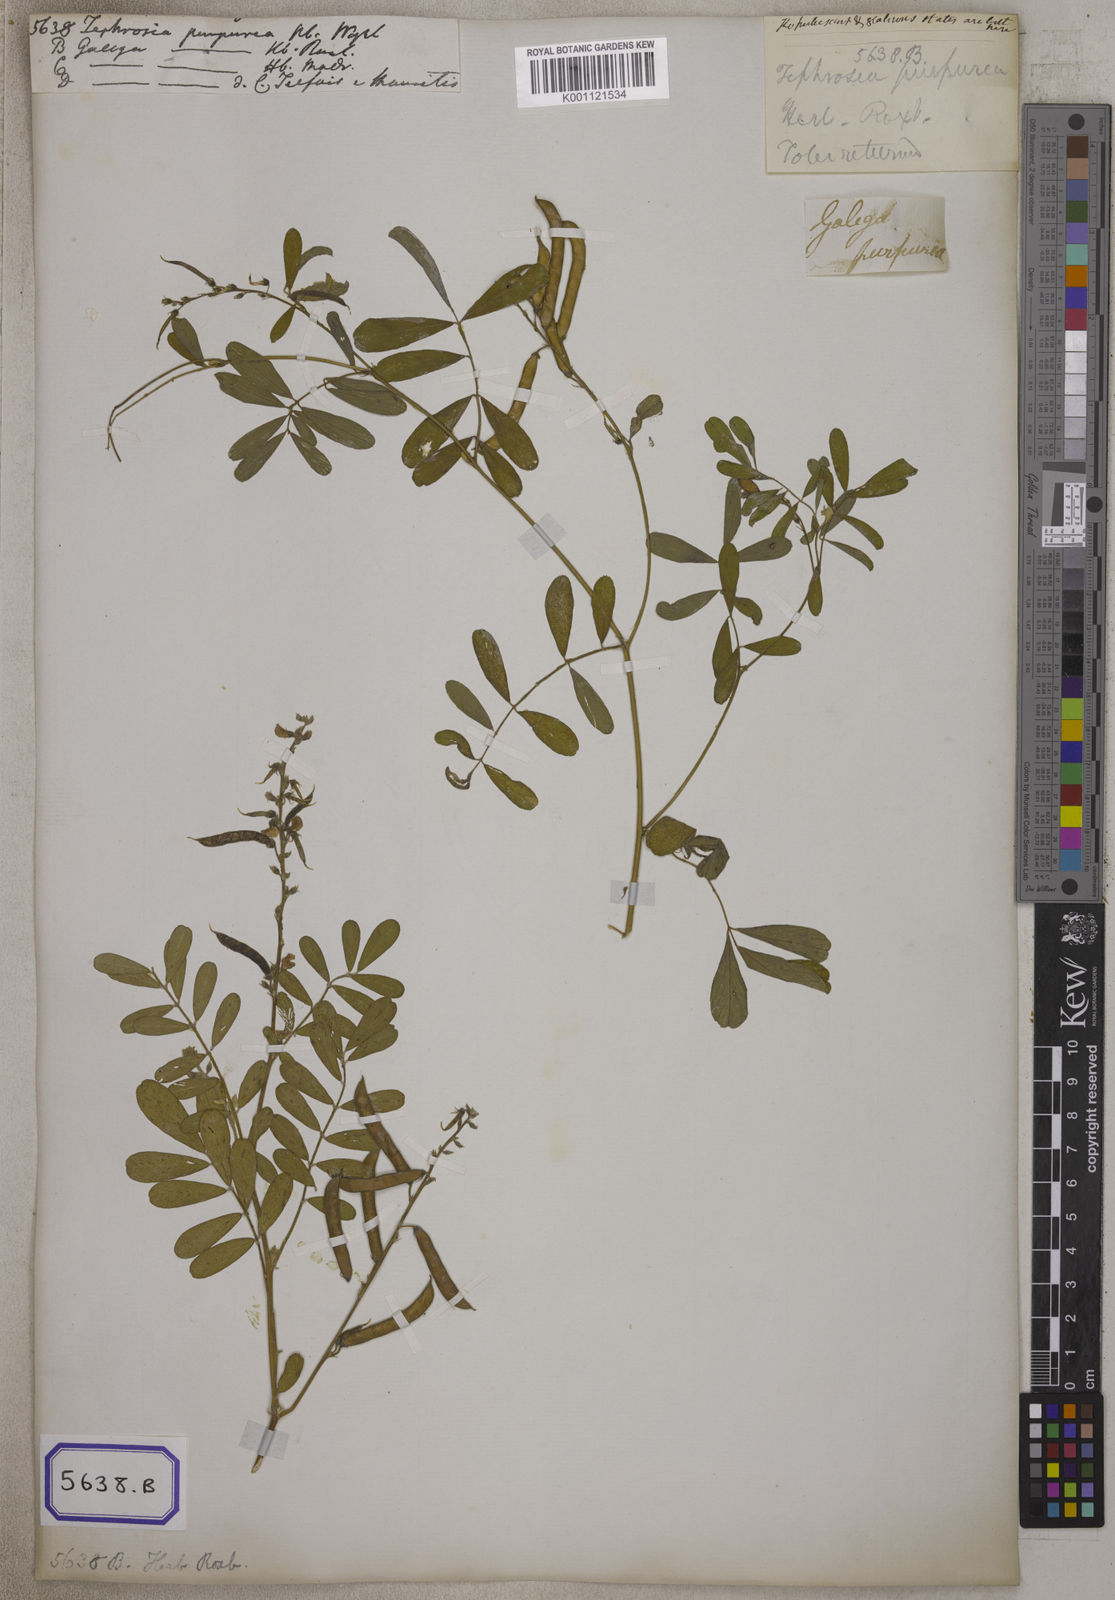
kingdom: Plantae
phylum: Tracheophyta
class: Magnoliopsida
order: Fabales
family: Fabaceae
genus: Tephrosia
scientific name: Tephrosia purpurea
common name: Fishpoison
